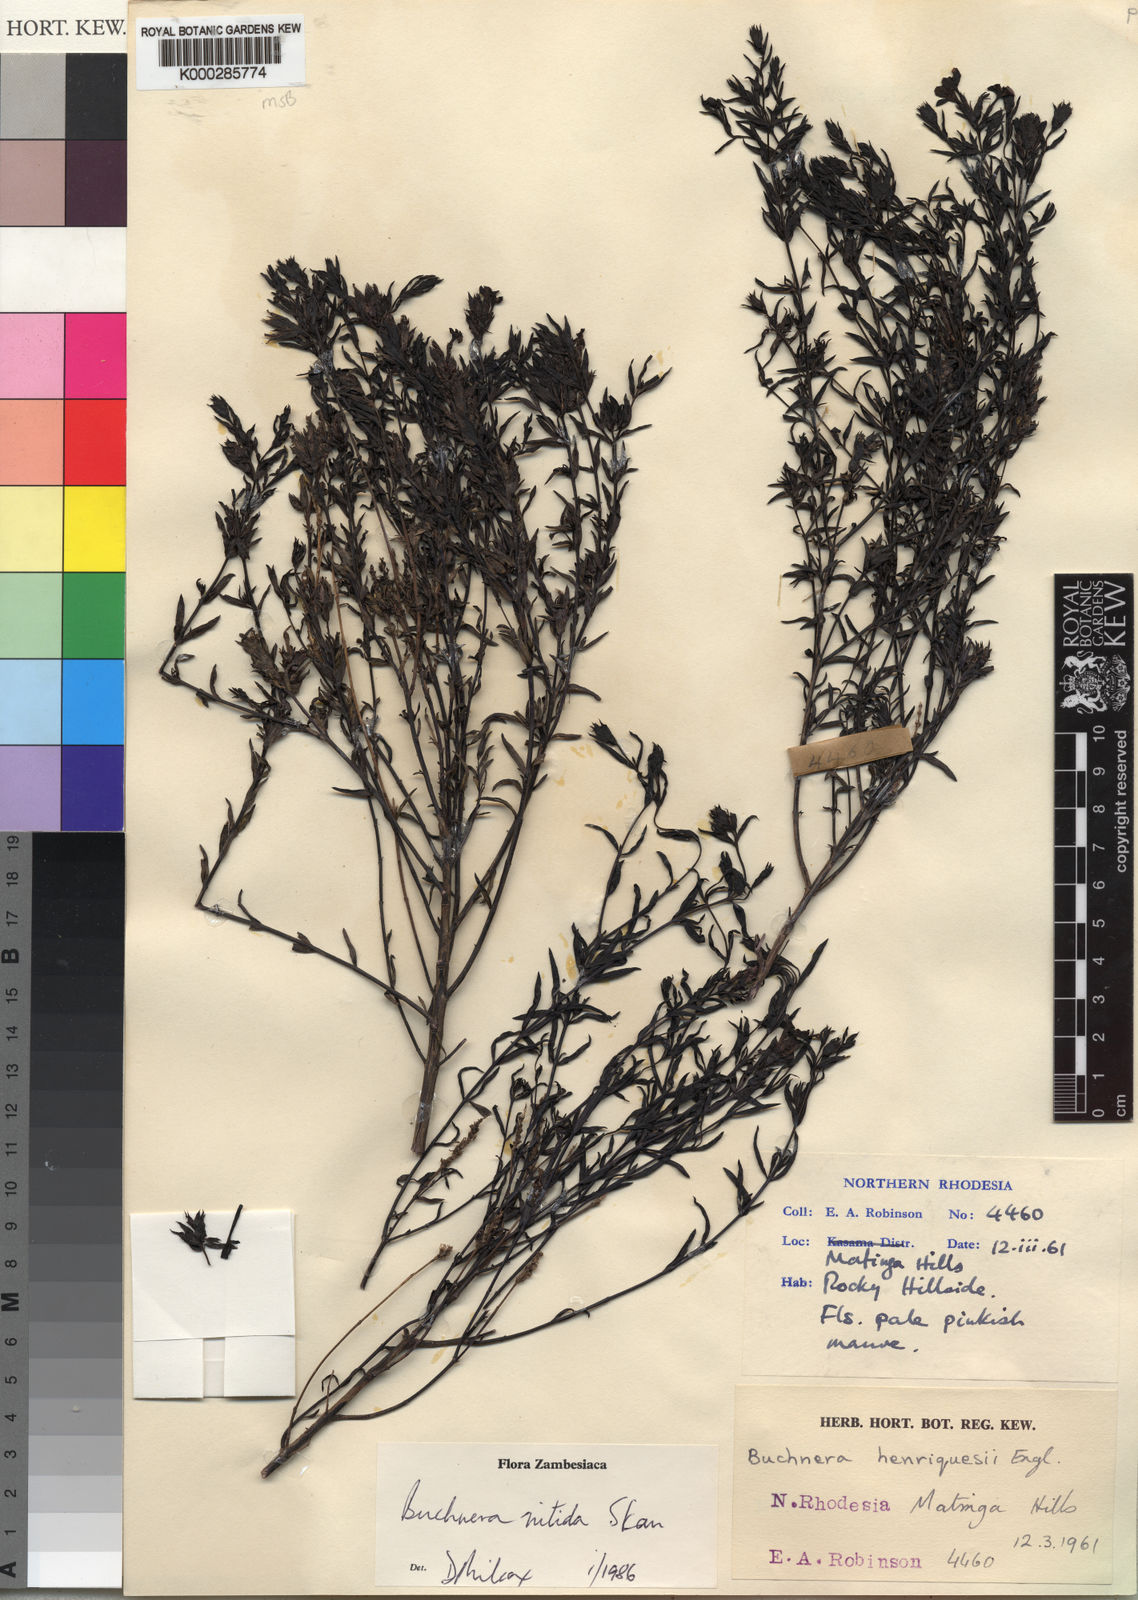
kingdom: Plantae
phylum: Tracheophyta
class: Magnoliopsida
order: Lamiales
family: Orobanchaceae
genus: Buchnera
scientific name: Buchnera nitida
